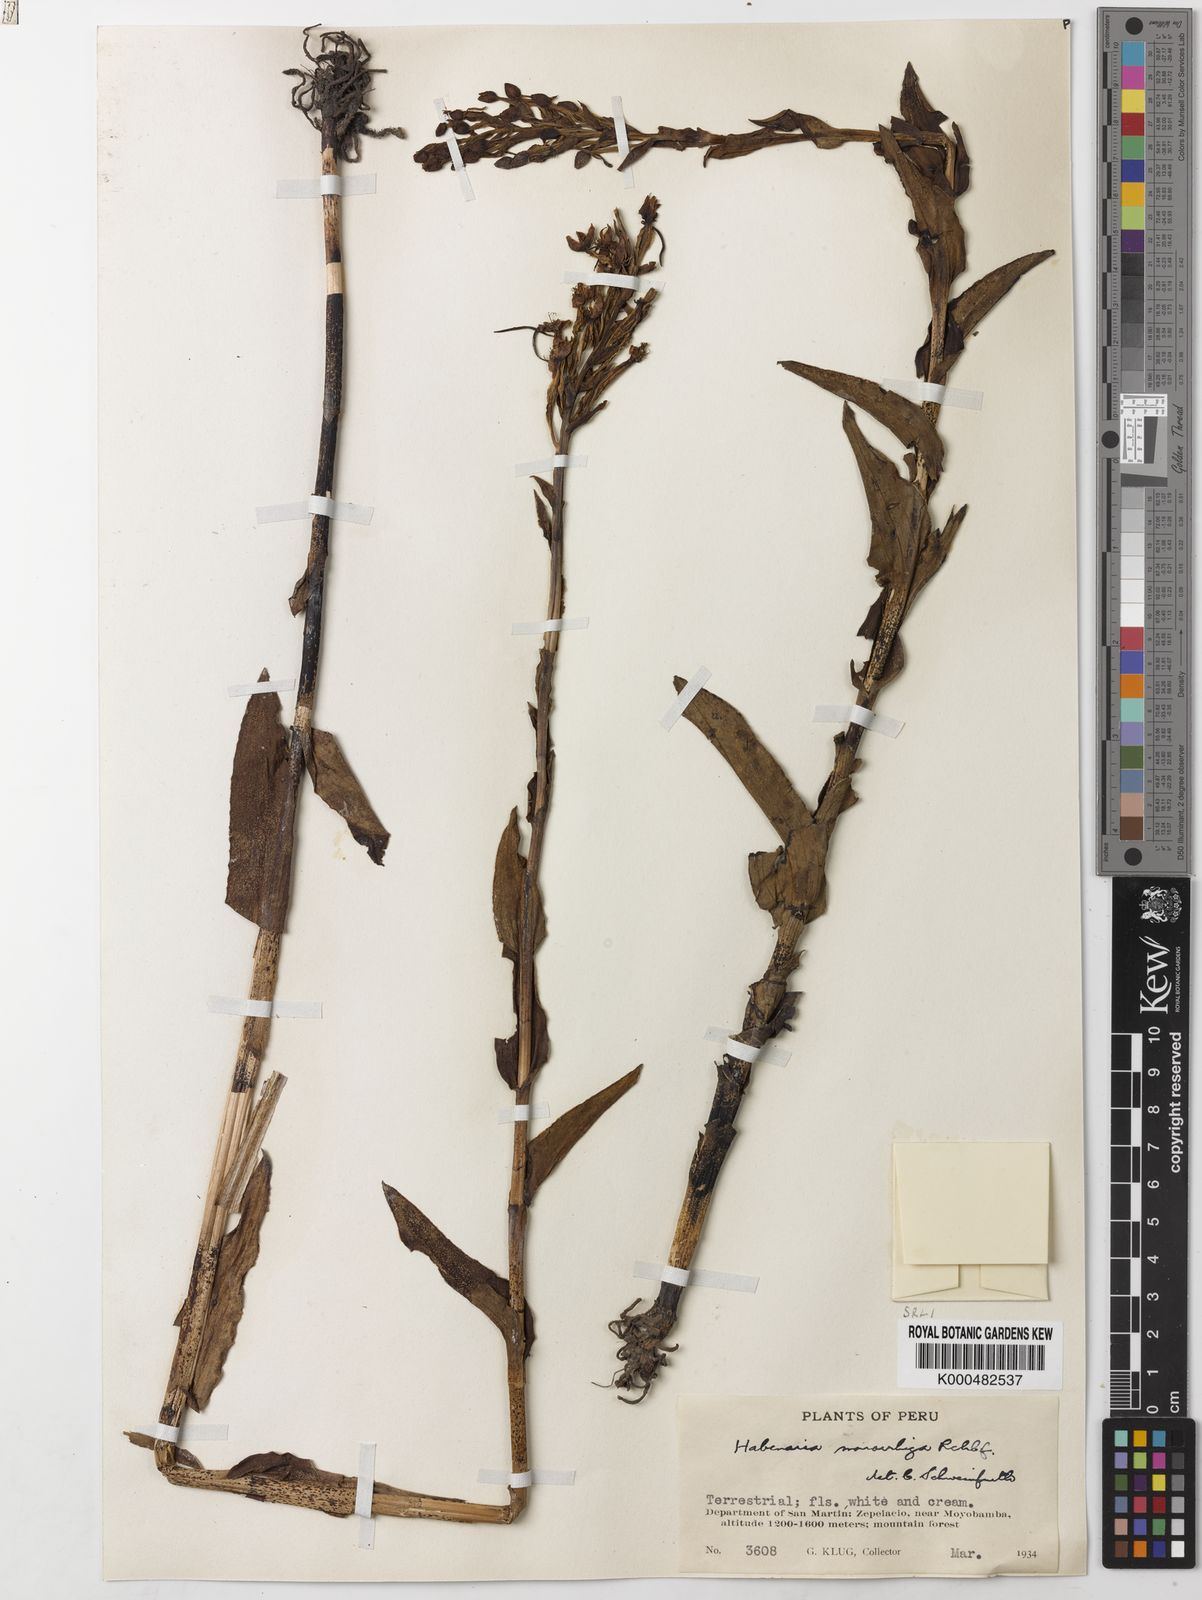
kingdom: Plantae
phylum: Tracheophyta
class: Liliopsida
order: Asparagales
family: Orchidaceae
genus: Habenaria
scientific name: Habenaria monorrhiza
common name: Tropical bog orchid
